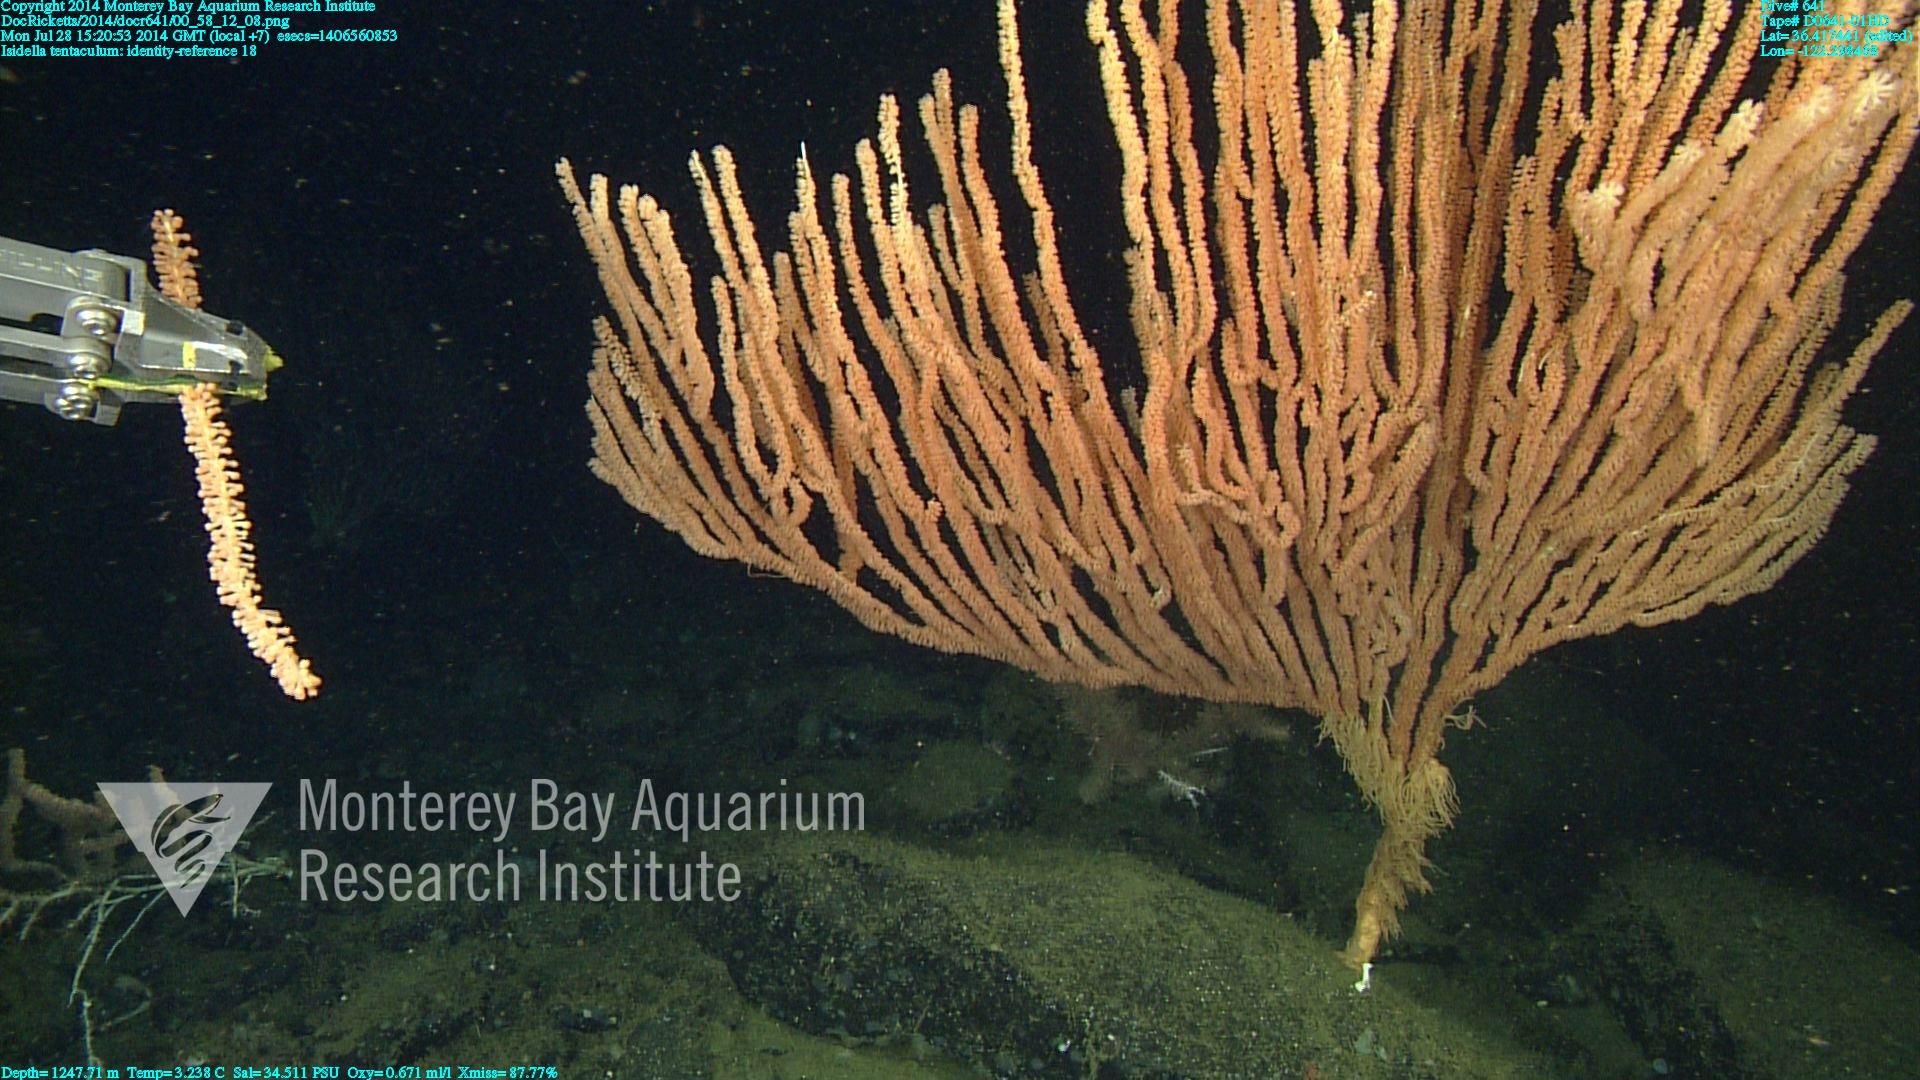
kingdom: Animalia
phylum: Cnidaria
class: Anthozoa
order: Scleralcyonacea
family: Keratoisididae
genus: Isidella
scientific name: Isidella tentaculum
